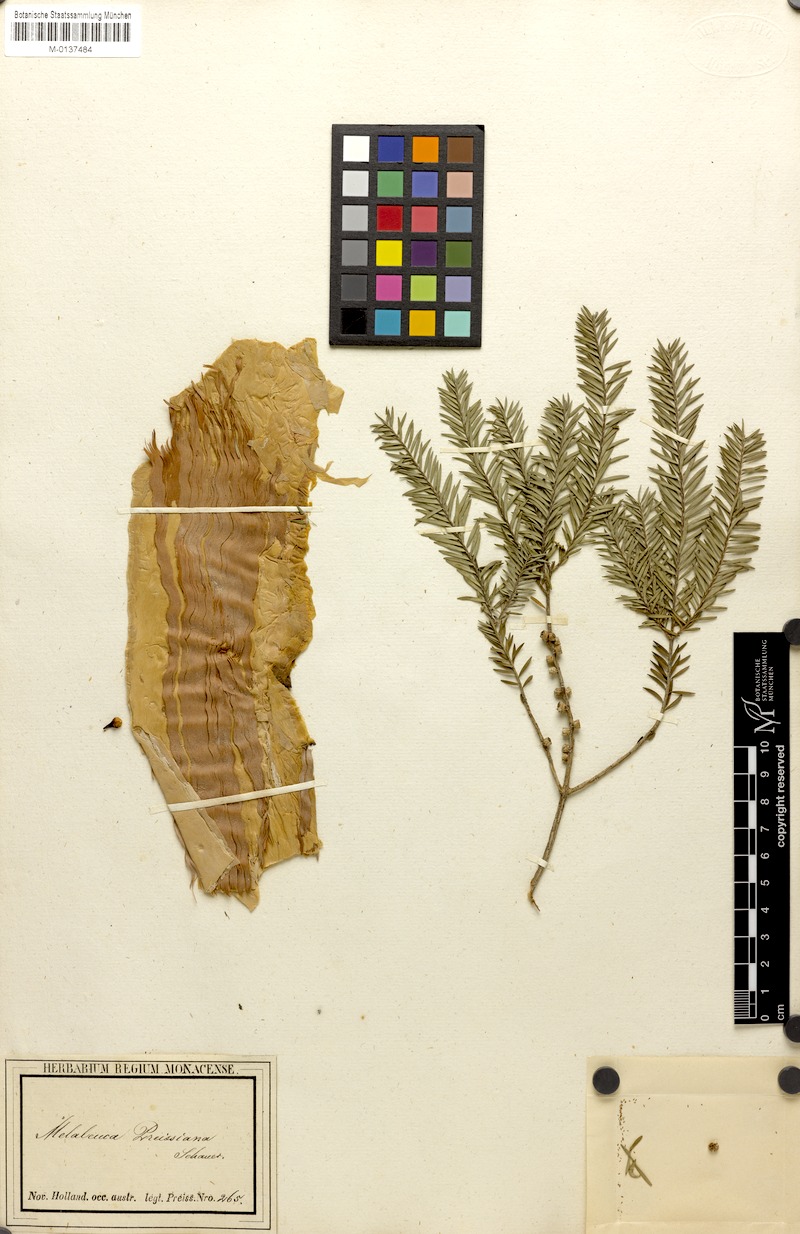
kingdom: Plantae
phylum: Tracheophyta
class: Magnoliopsida
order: Myrtales
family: Myrtaceae
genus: Melaleuca
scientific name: Melaleuca preissiana
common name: Preiss's paperbark
